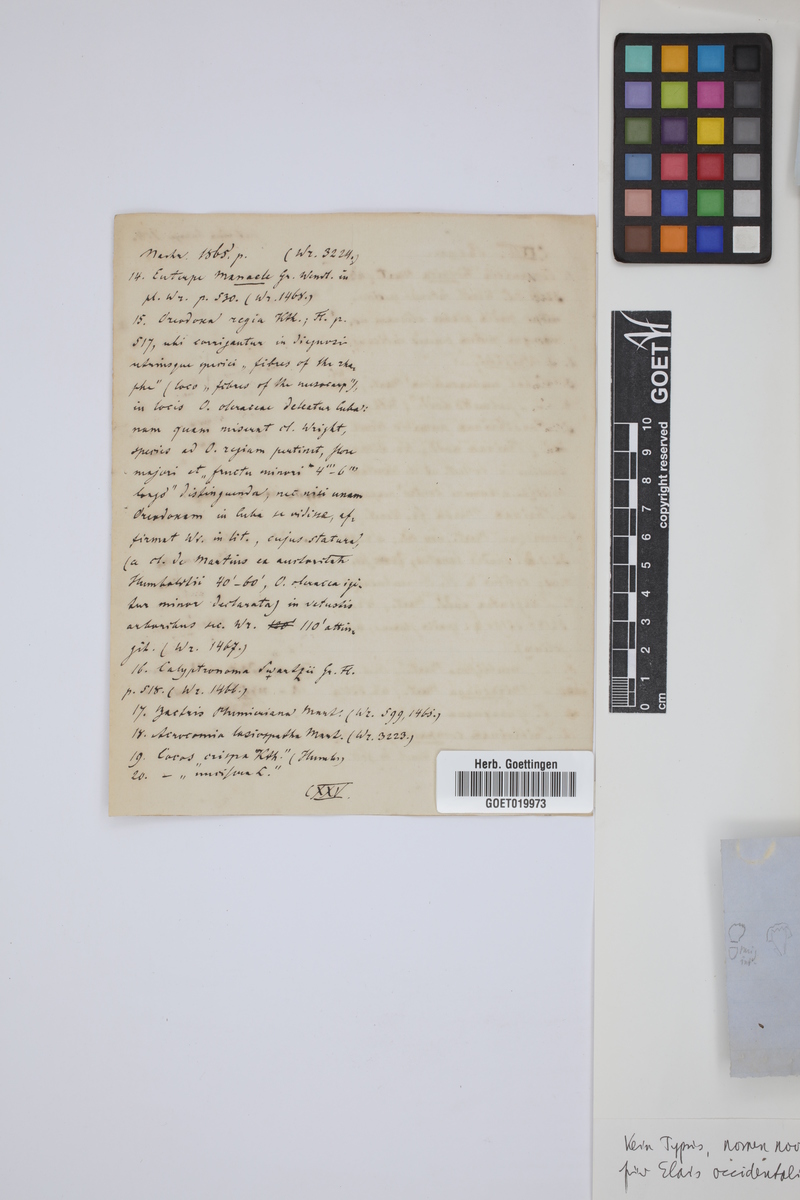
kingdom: Plantae
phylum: Tracheophyta
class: Magnoliopsida
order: Caryophyllales
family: Plumbaginaceae
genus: Acantholimon
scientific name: Acantholimon diapensioides
